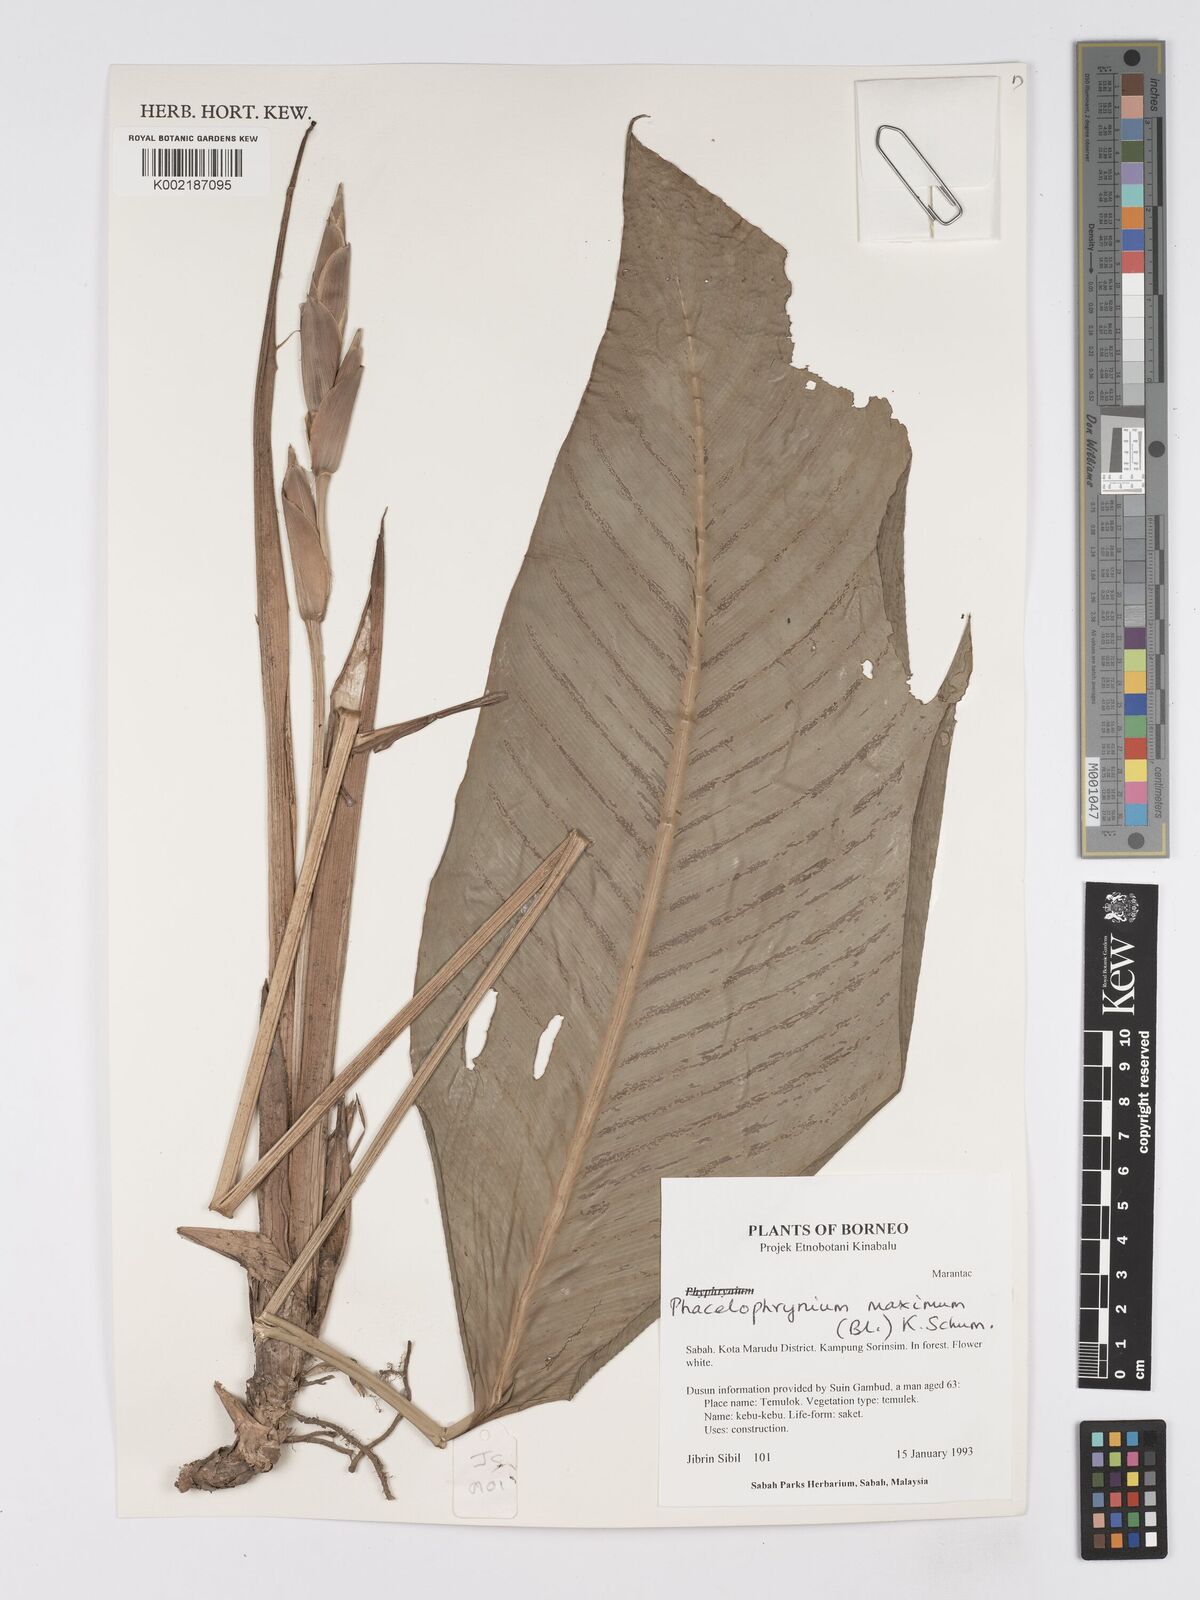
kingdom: Plantae
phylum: Tracheophyta
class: Liliopsida
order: Zingiberales
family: Marantaceae
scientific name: Marantaceae
